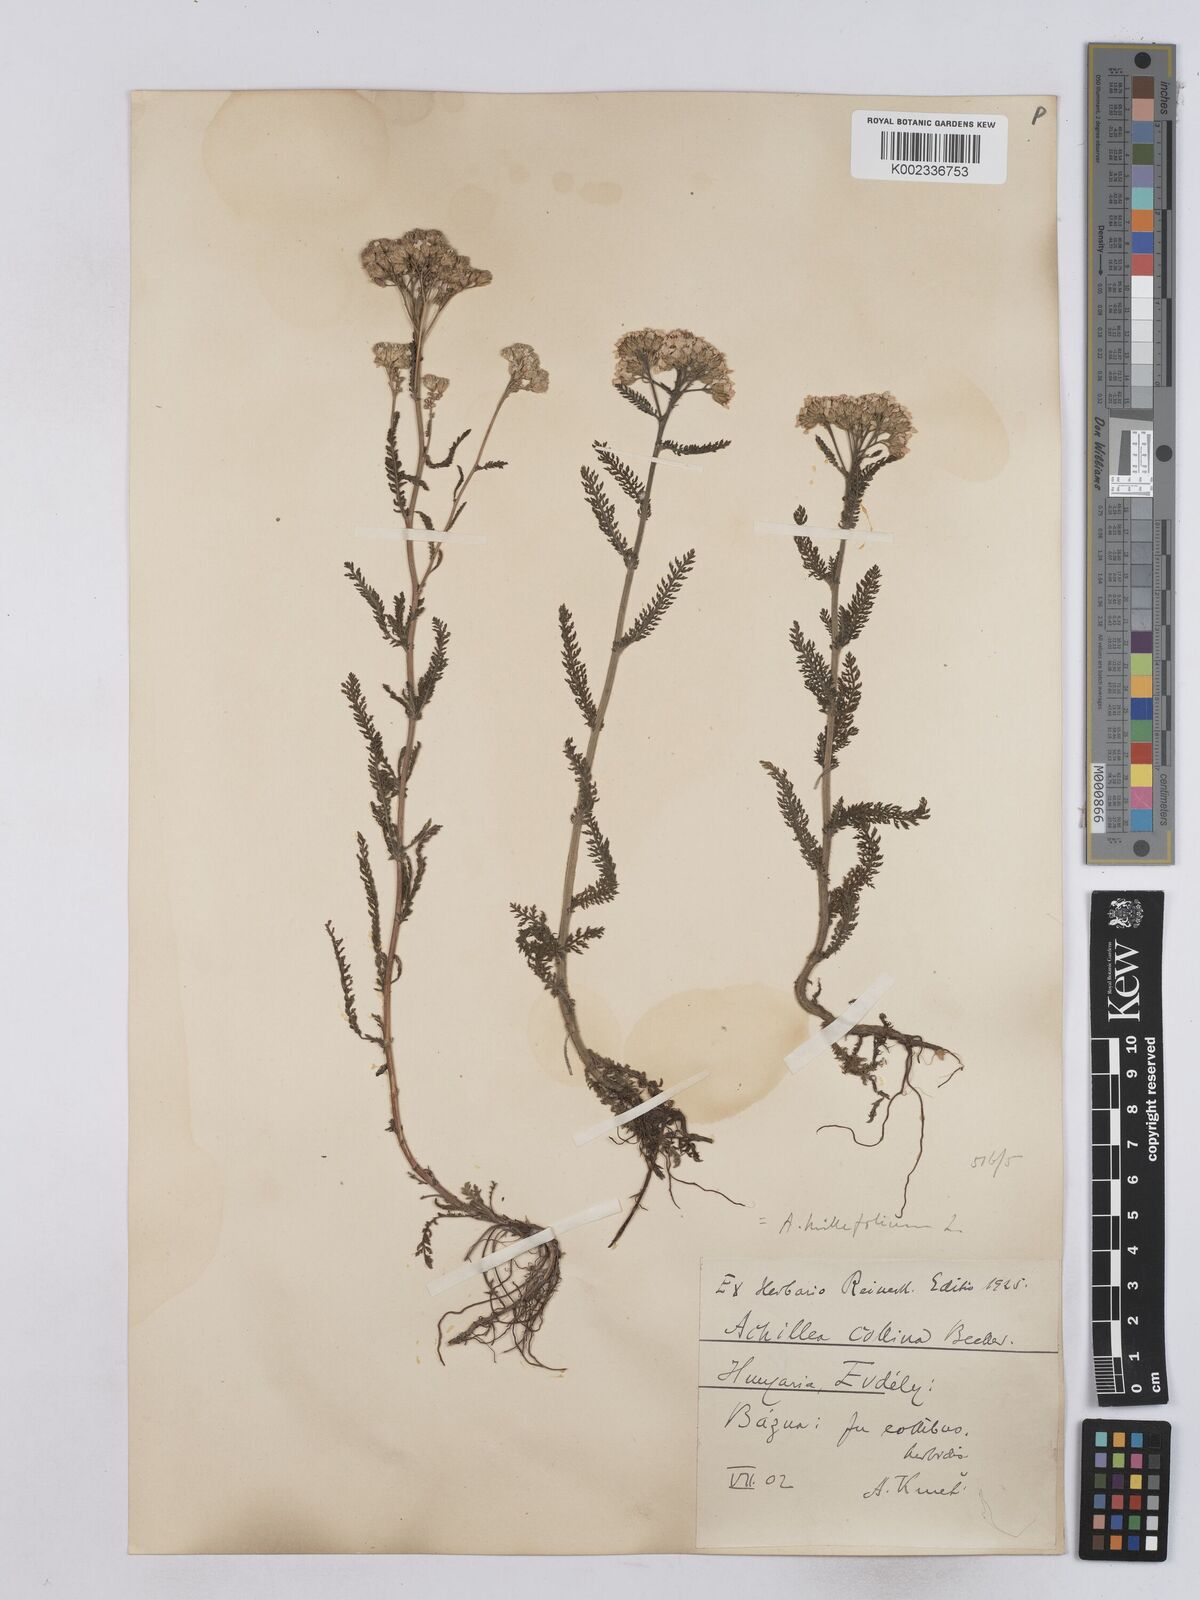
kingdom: Plantae
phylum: Tracheophyta
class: Magnoliopsida
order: Asterales
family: Asteraceae
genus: Achillea
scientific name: Achillea setacea
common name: Bristly yarrow
